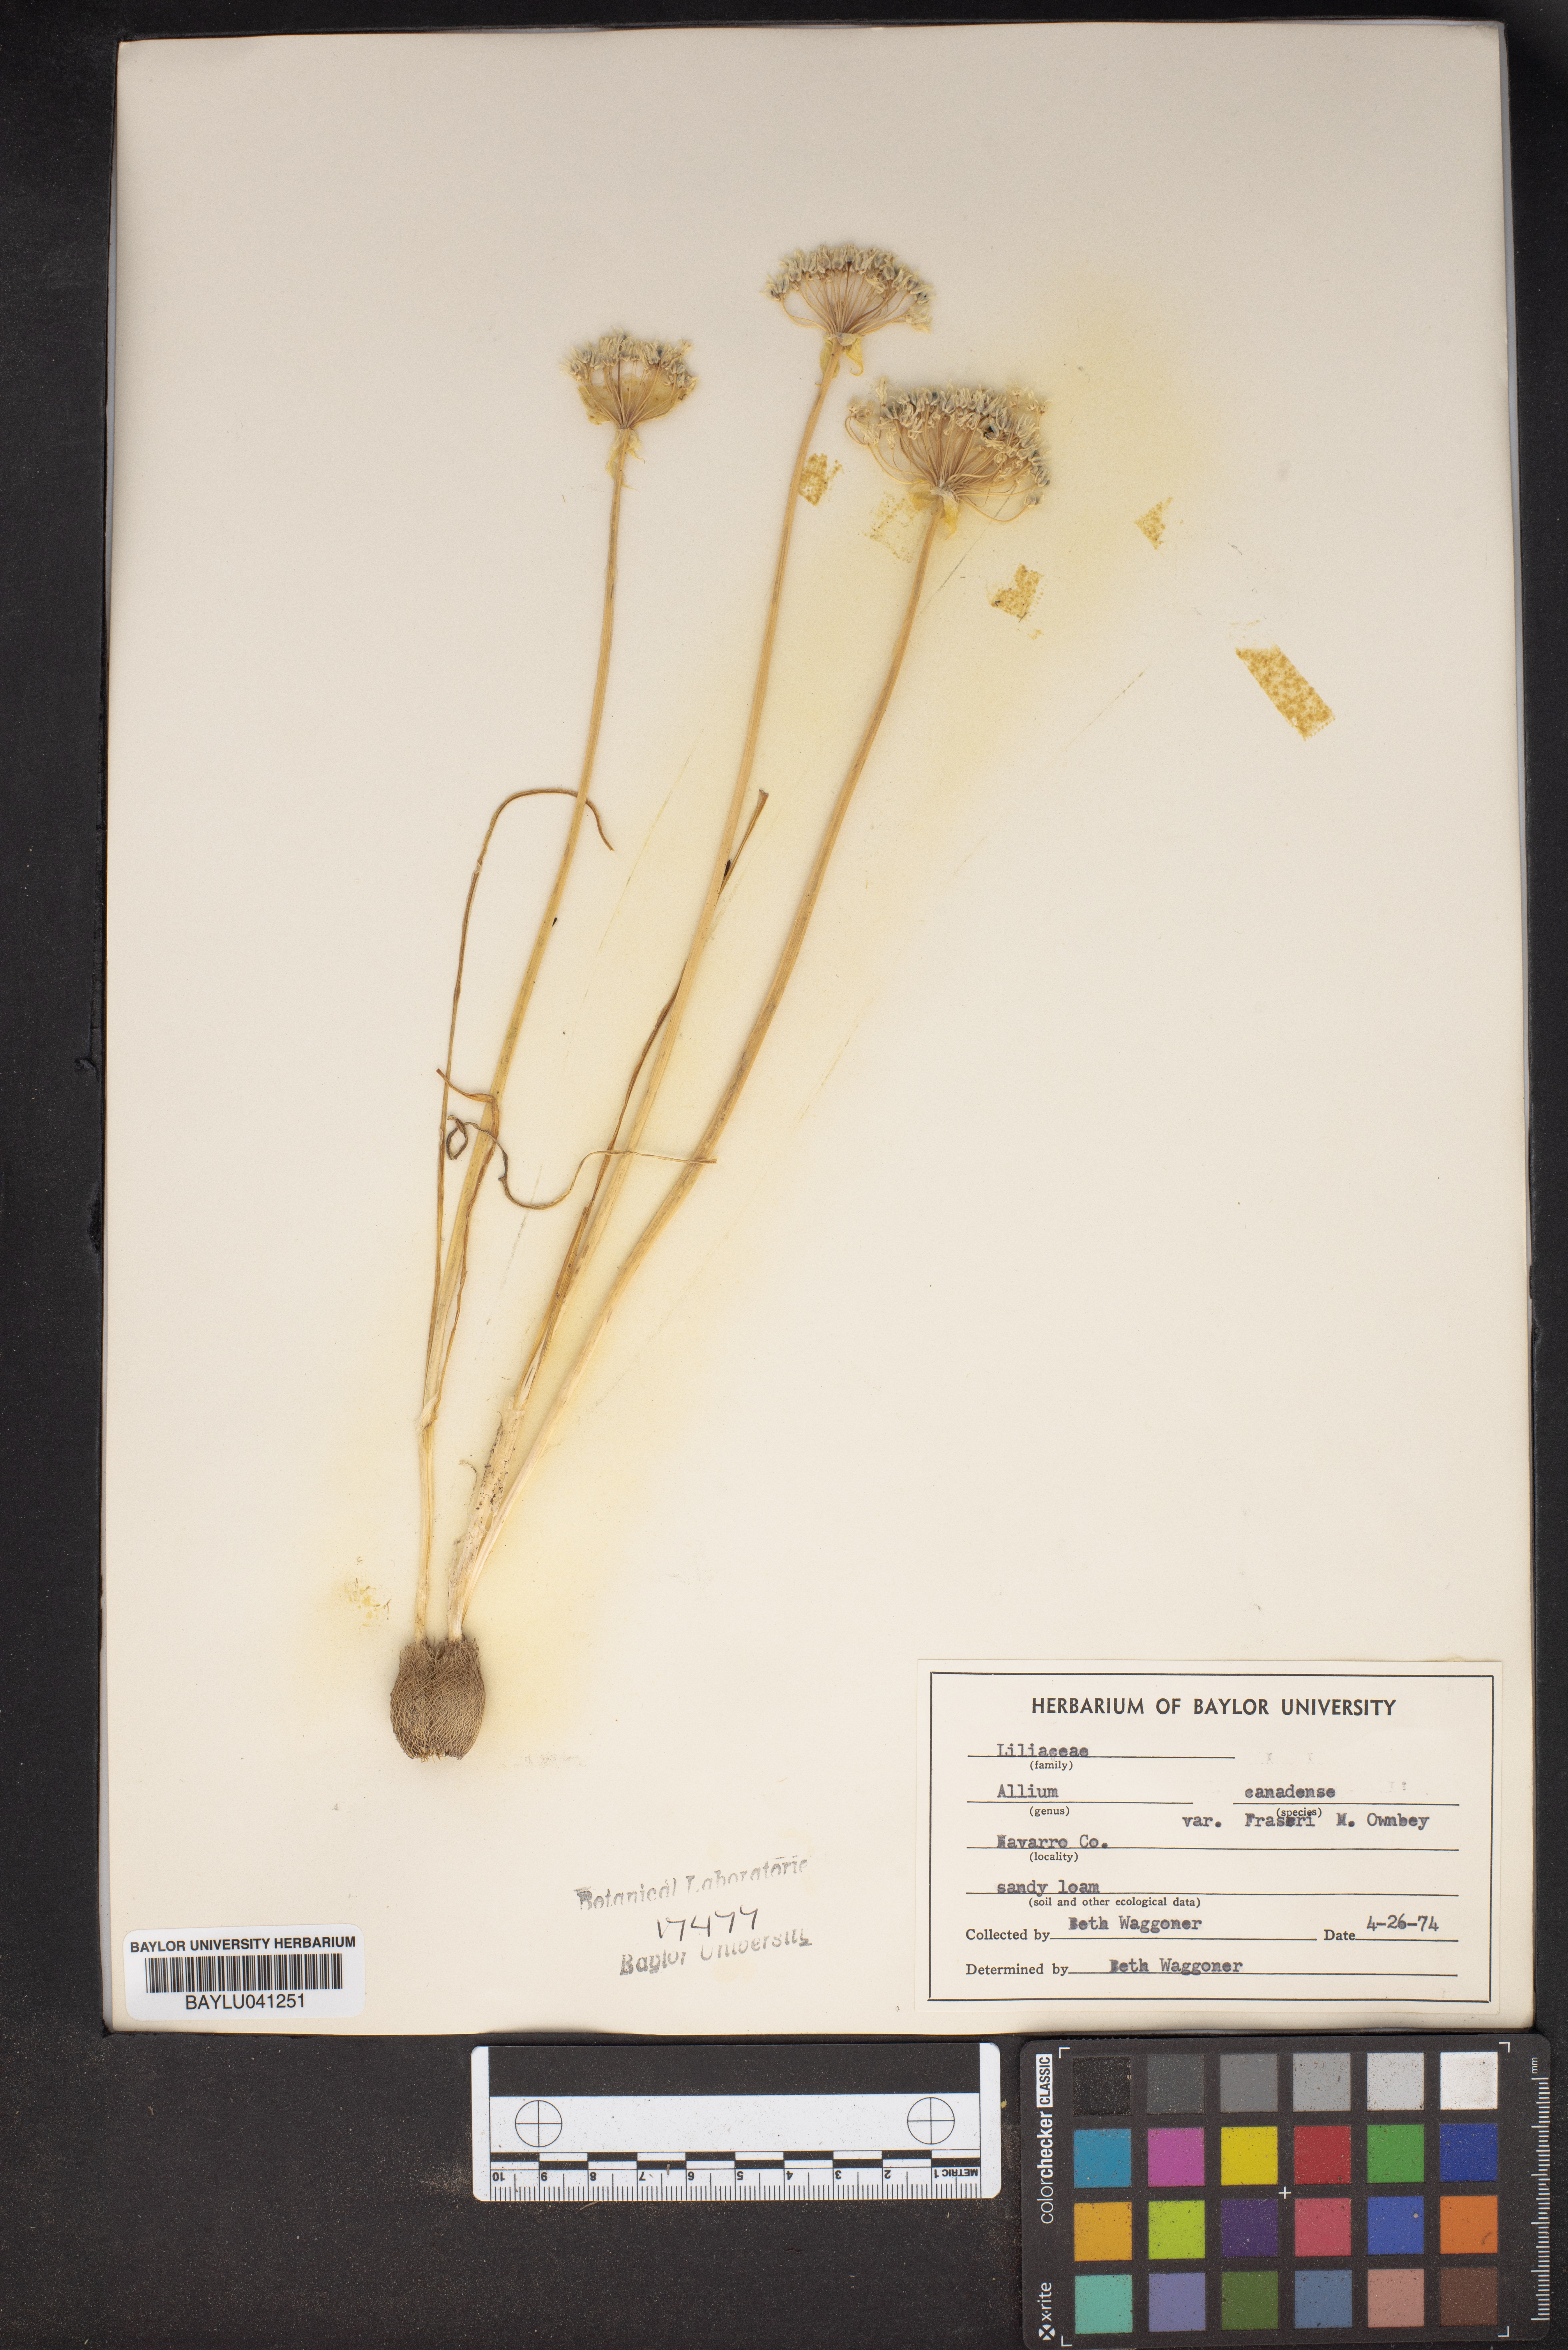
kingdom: Plantae
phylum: Tracheophyta
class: Liliopsida
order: Asparagales
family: Amaryllidaceae
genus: Allium
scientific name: Allium fraseri
